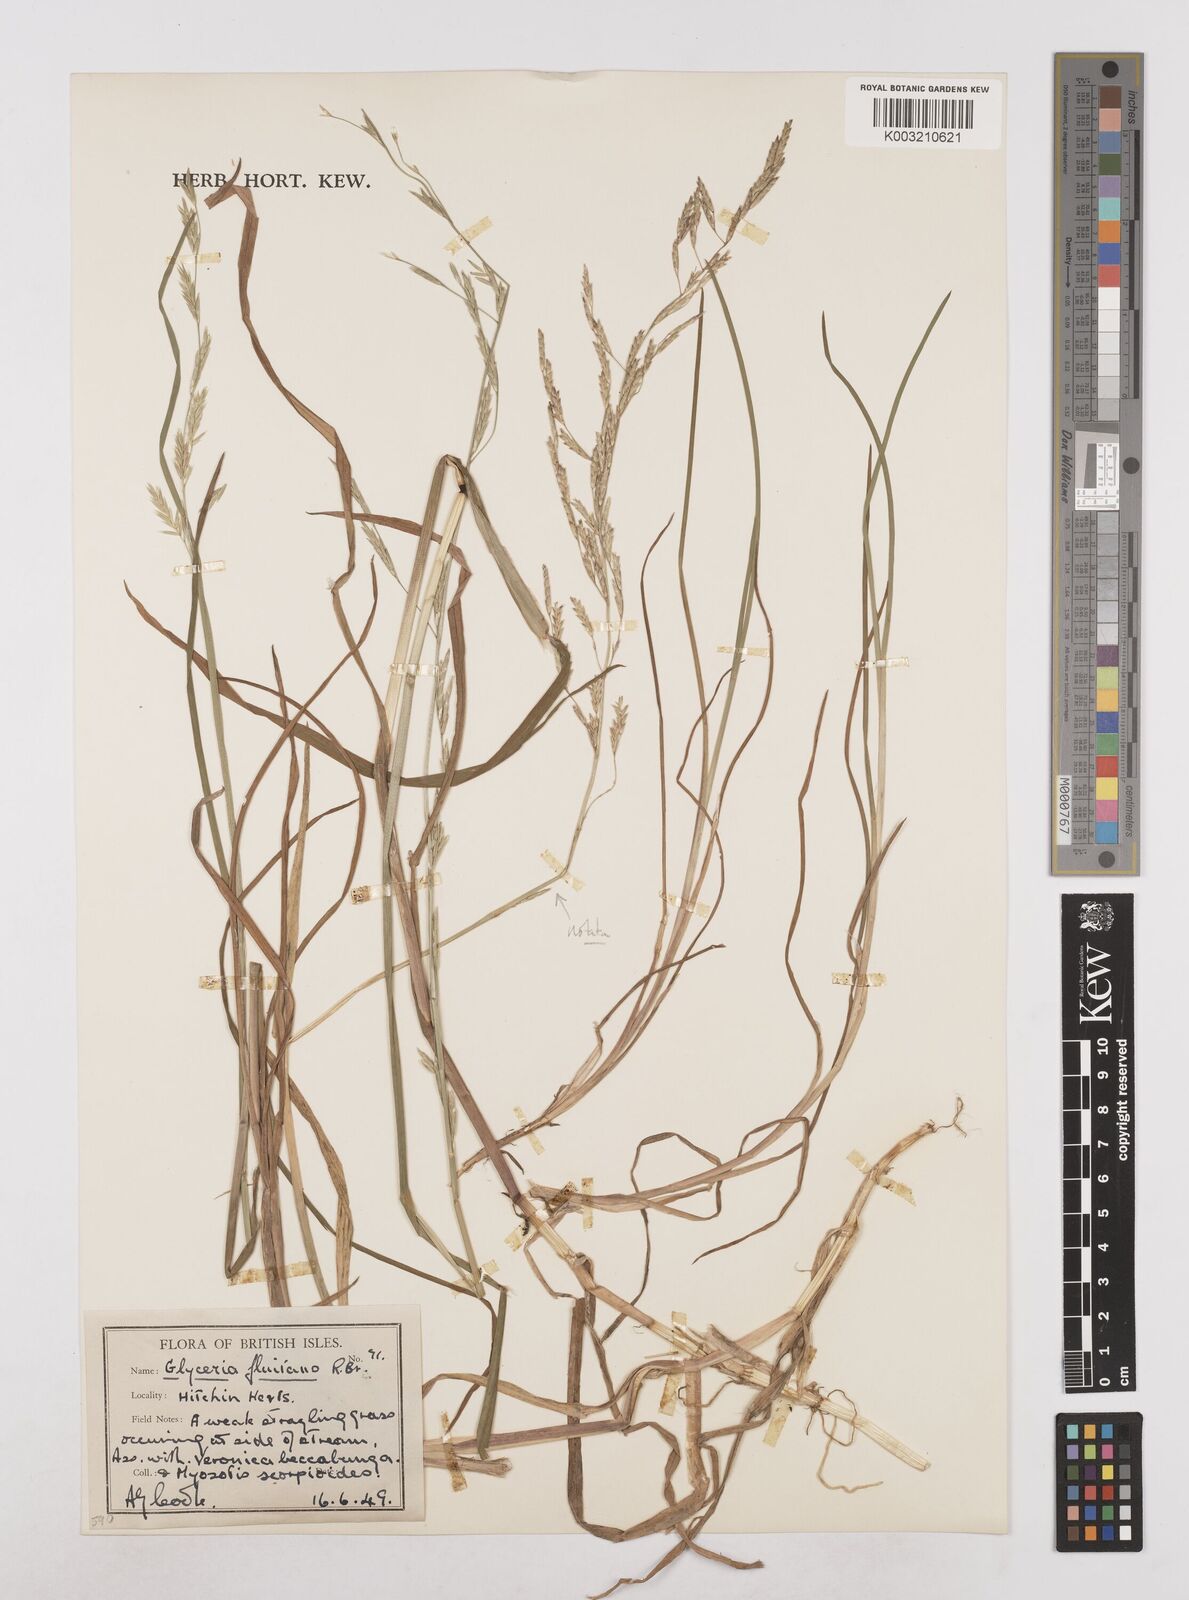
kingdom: Plantae
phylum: Tracheophyta
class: Liliopsida
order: Poales
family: Poaceae
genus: Glyceria
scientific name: Glyceria fluitans
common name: Floating sweet-grass
